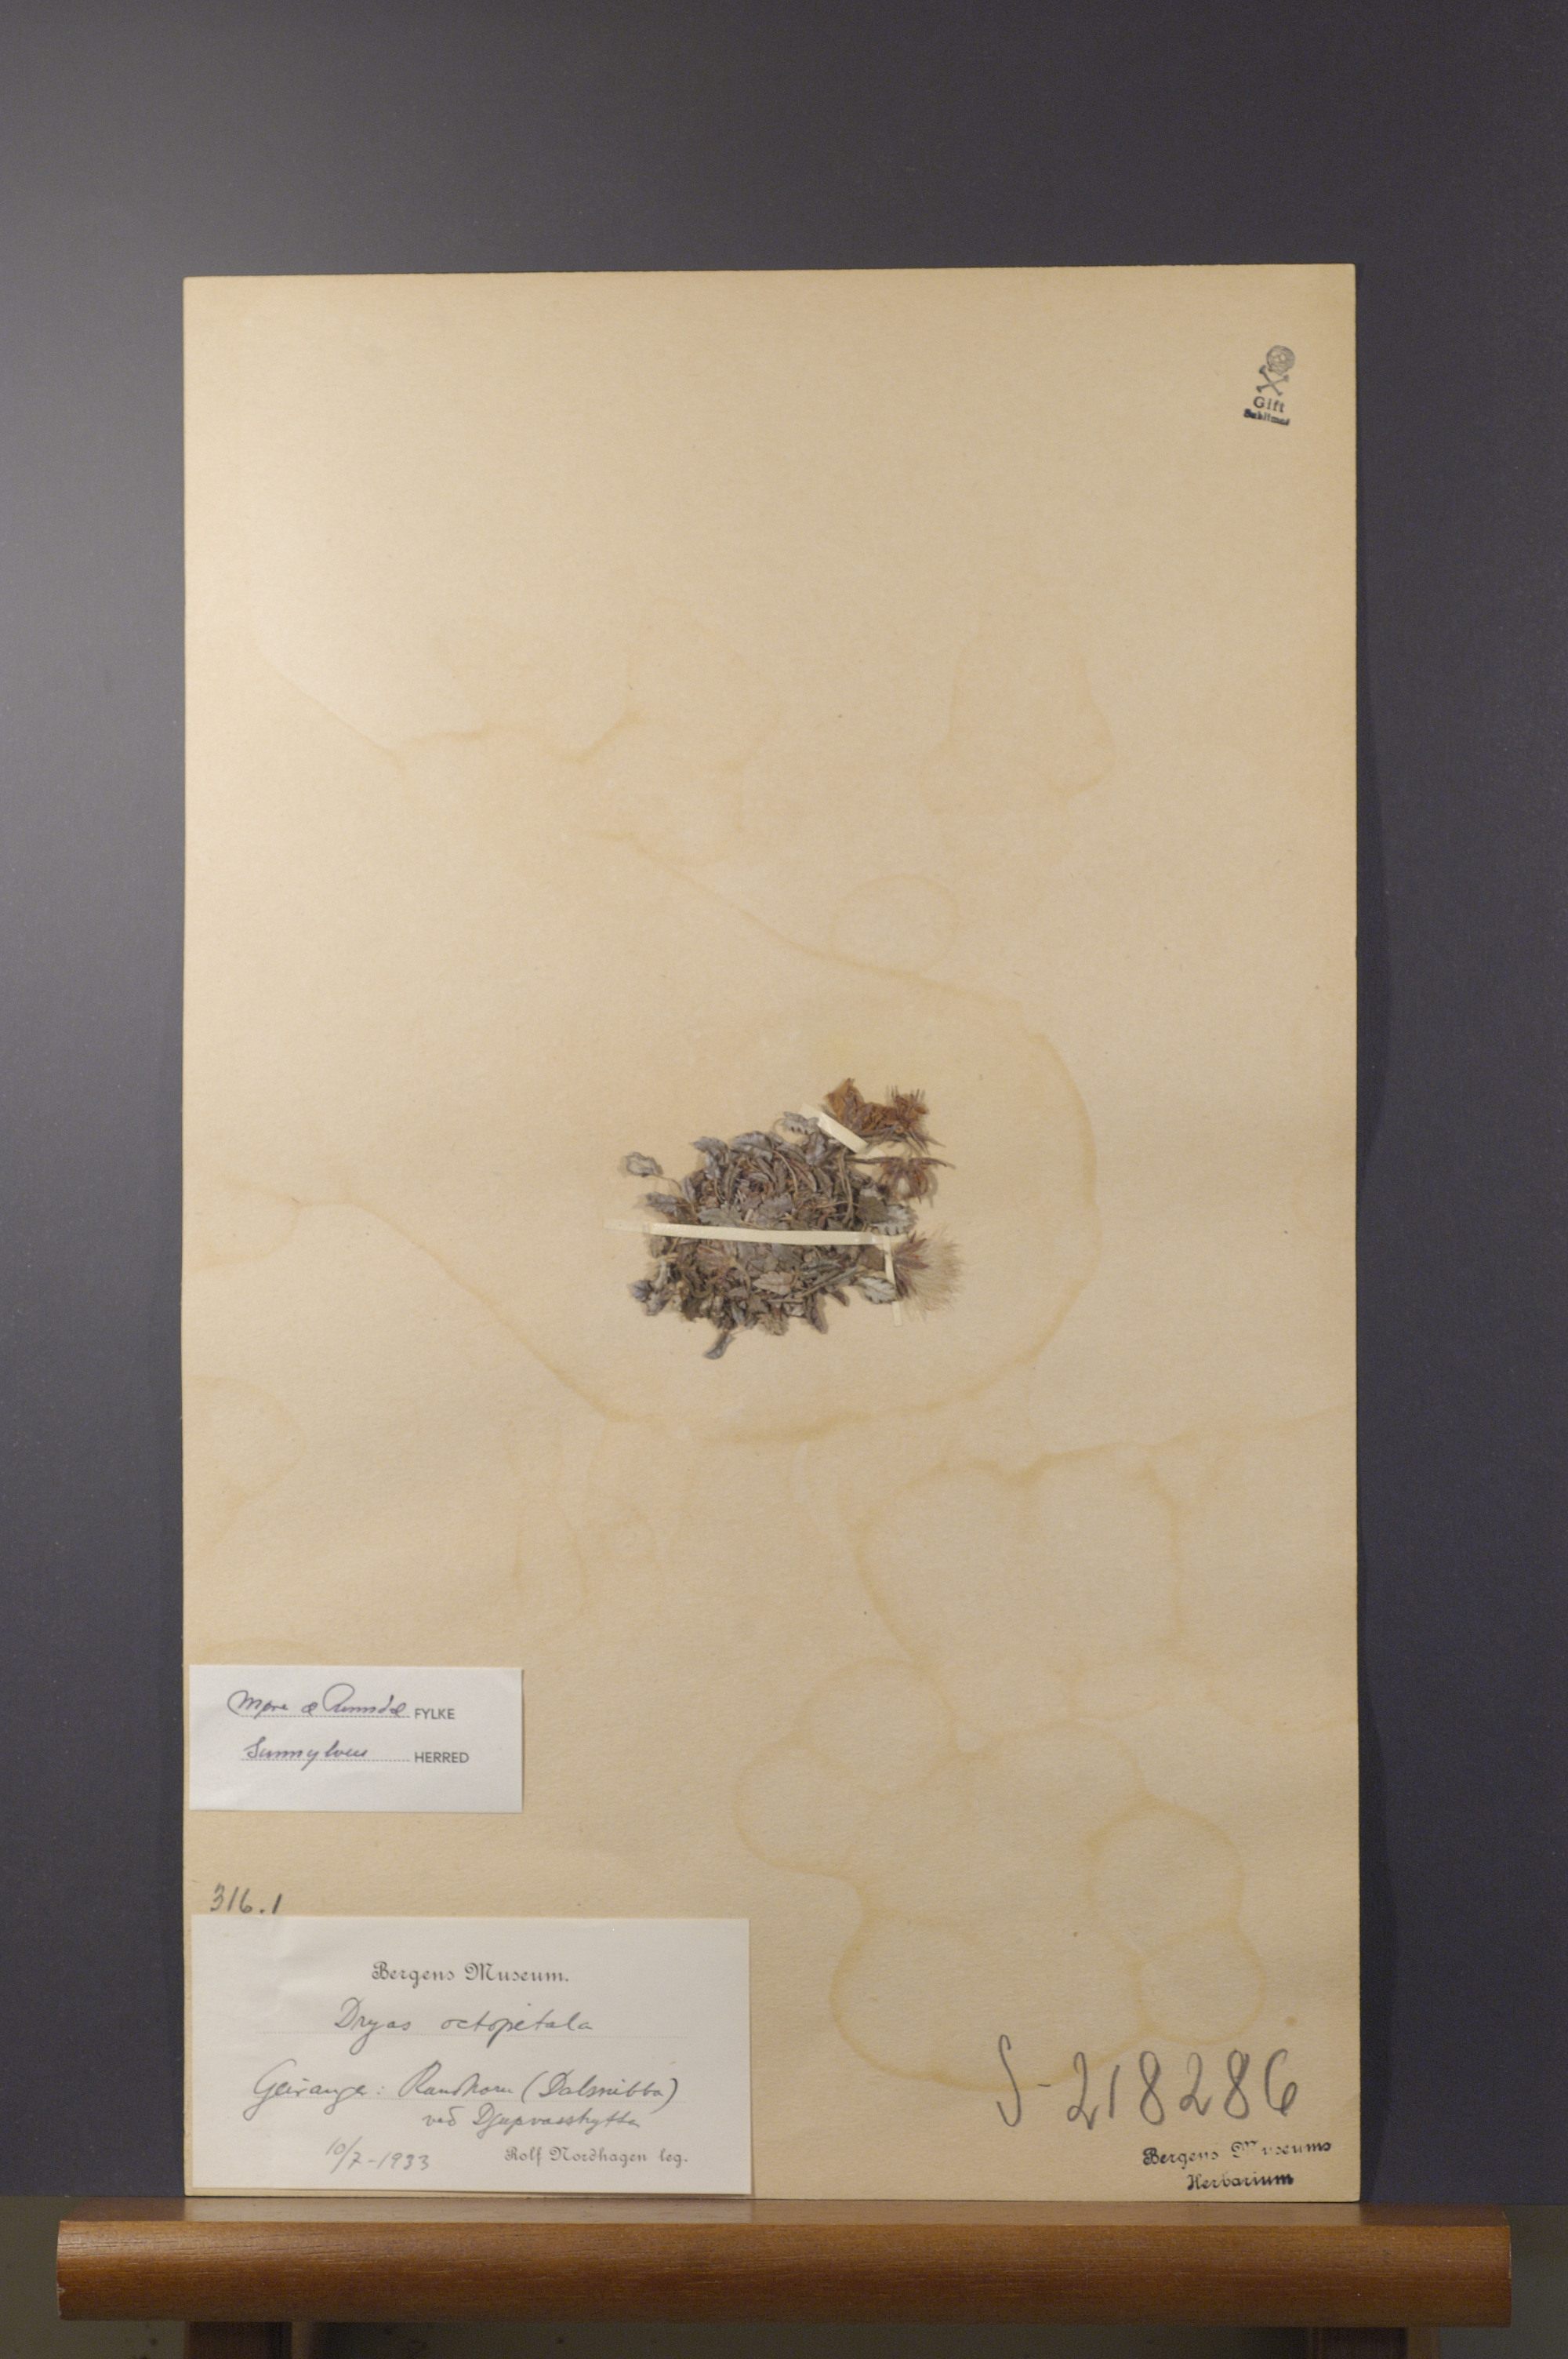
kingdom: Plantae
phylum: Tracheophyta
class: Magnoliopsida
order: Rosales
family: Rosaceae
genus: Dryas
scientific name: Dryas octopetala
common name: Eight-petal mountain-avens
